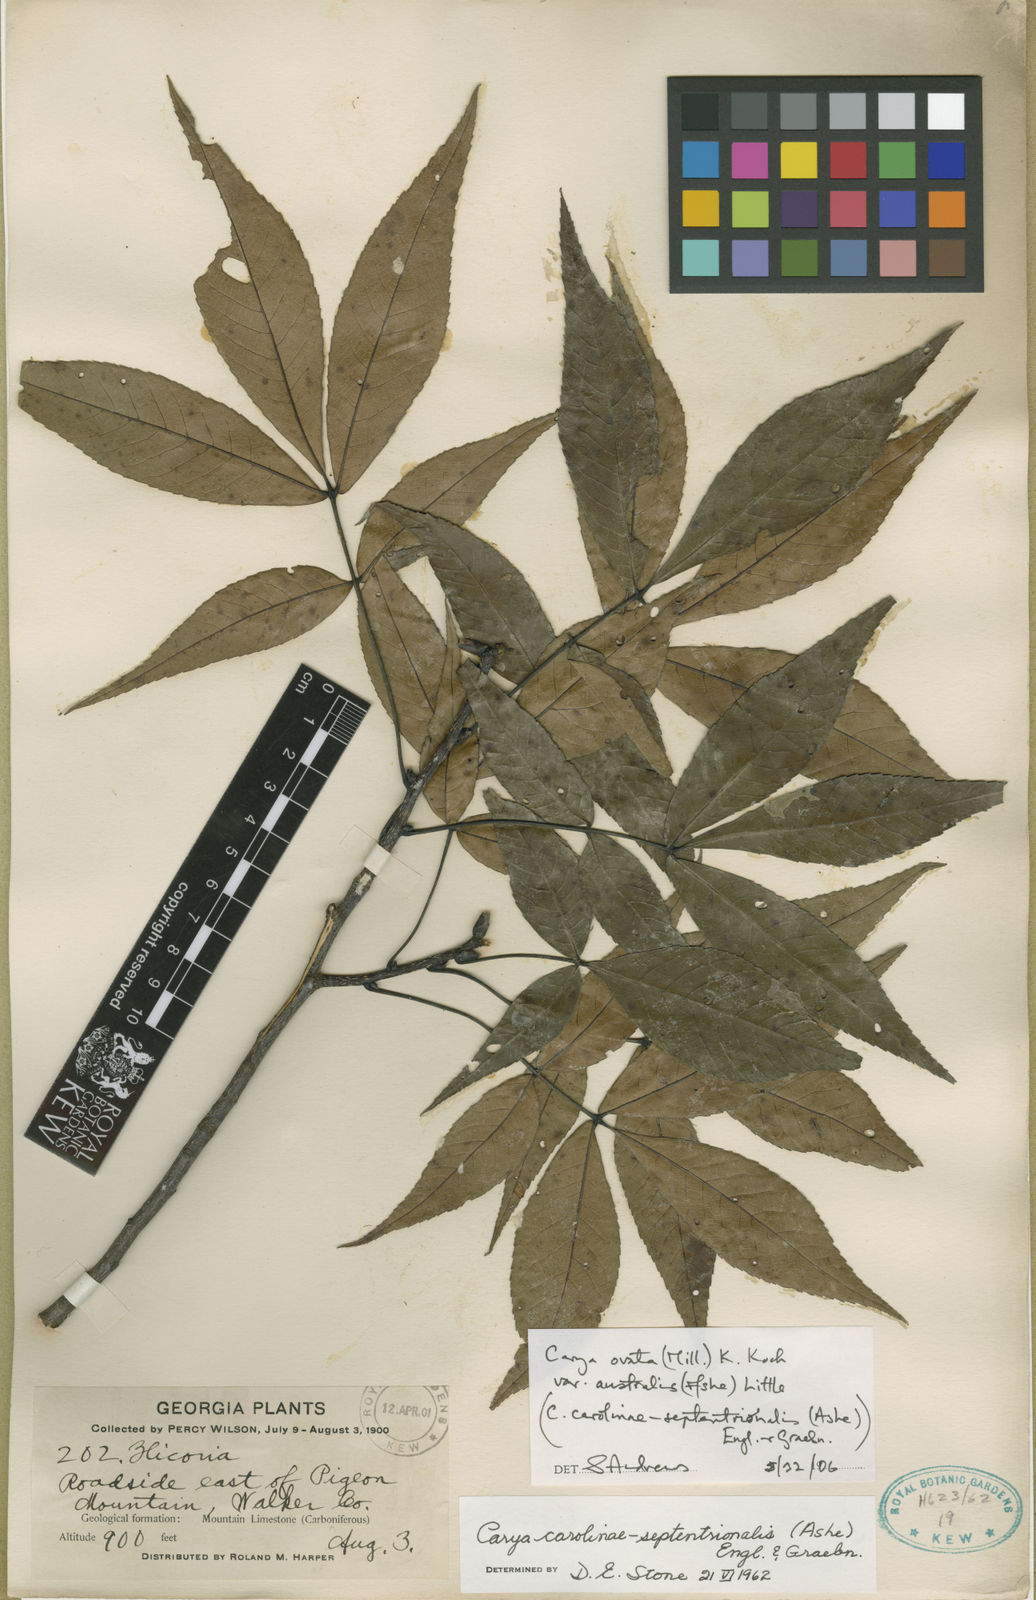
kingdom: Plantae
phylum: Tracheophyta
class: Magnoliopsida
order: Fagales
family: Juglandaceae
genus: Carya
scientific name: Carya carolinae-septentrionalis
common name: Carolina hickory
